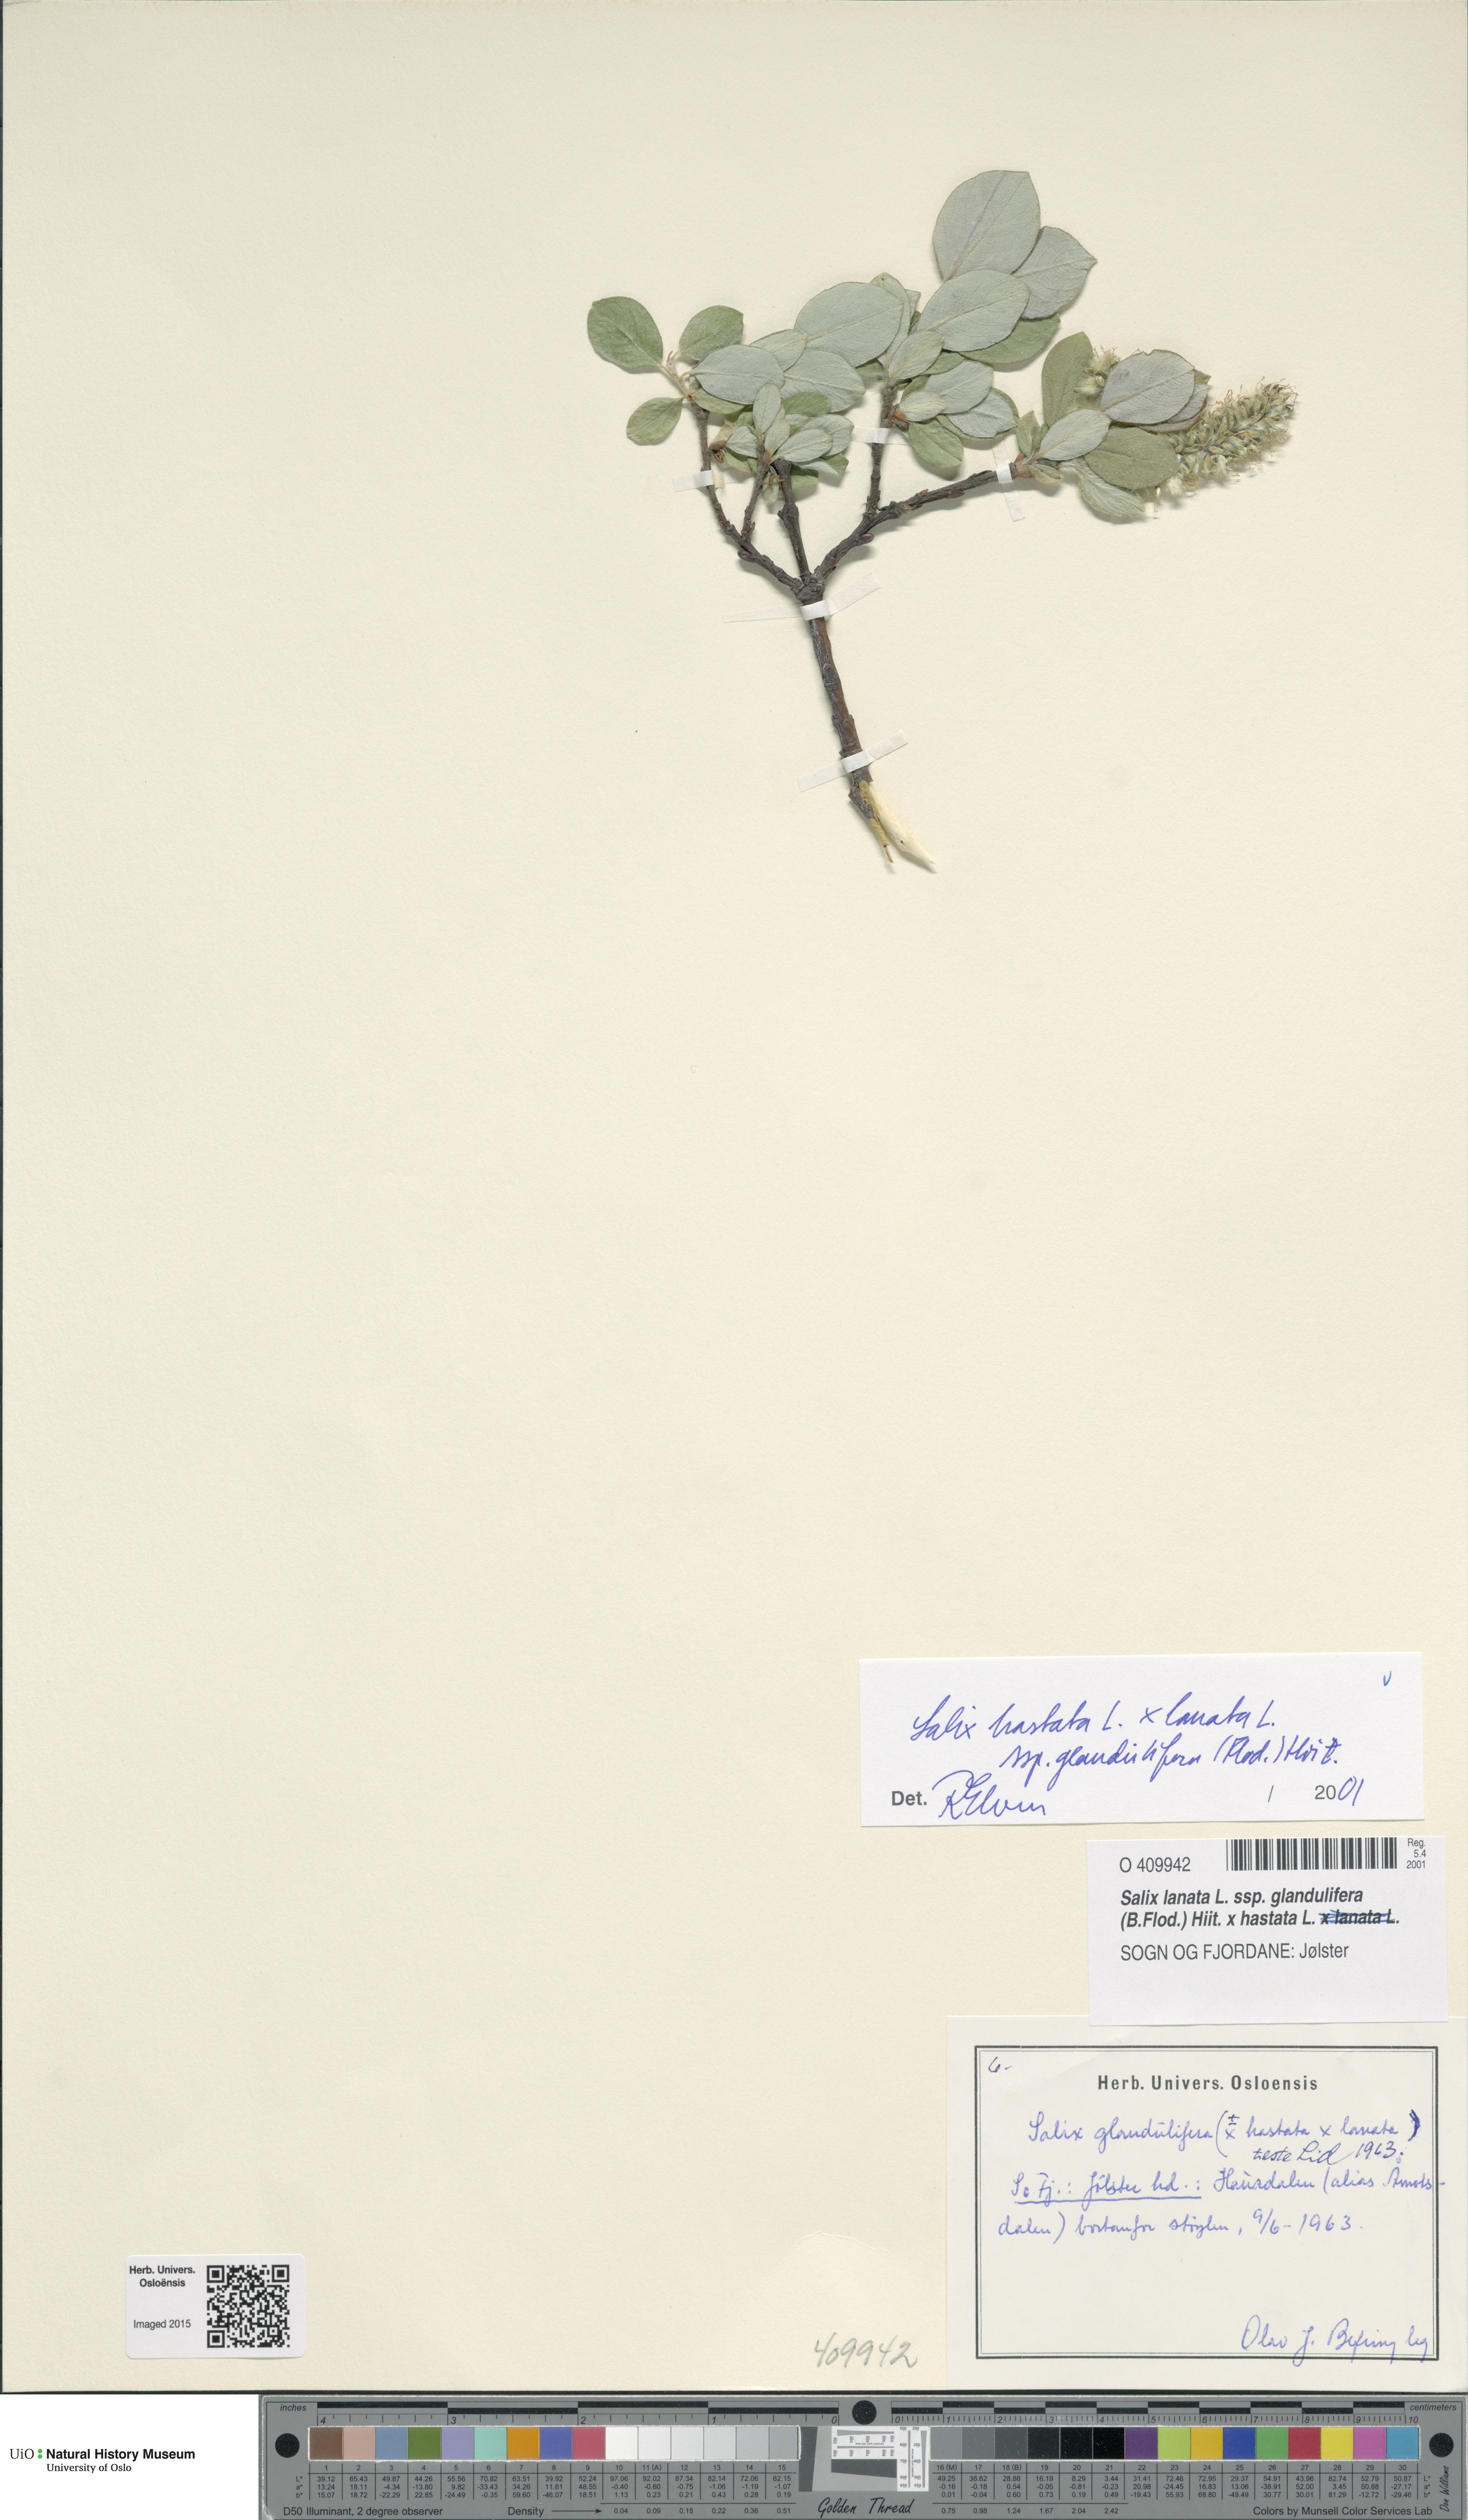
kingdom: Plantae
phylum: Tracheophyta
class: Magnoliopsida
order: Malpighiales
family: Salicaceae
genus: Salix
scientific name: Salix
